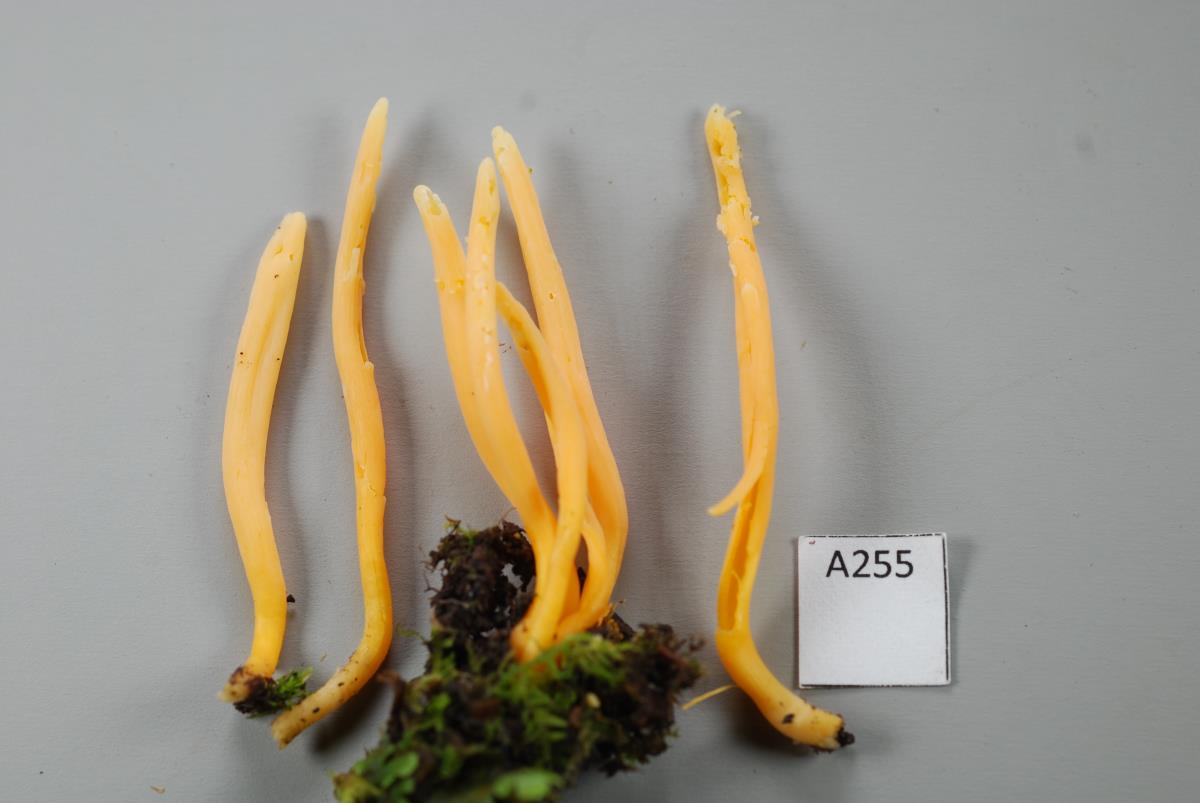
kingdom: Fungi
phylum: Basidiomycota
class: Agaricomycetes
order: Agaricales
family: Clavariaceae
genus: Clavulinopsis
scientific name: Clavulinopsis
